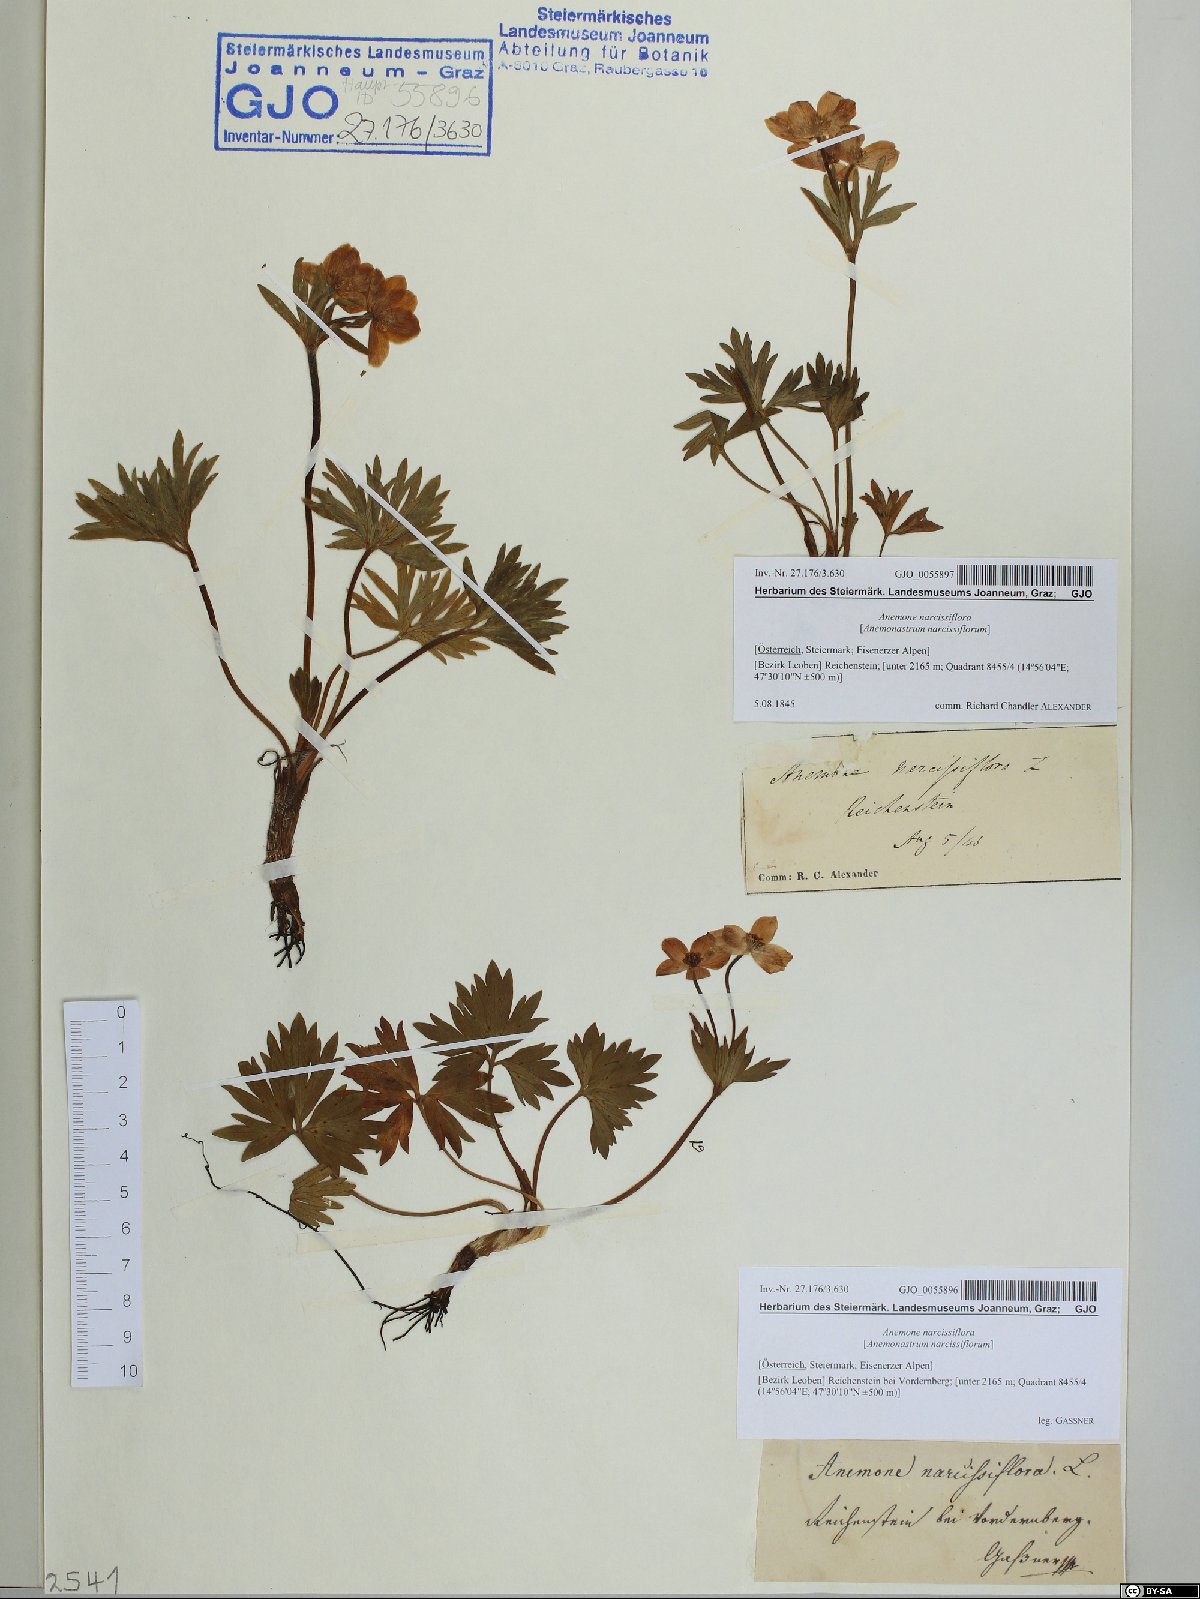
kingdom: Plantae
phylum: Tracheophyta
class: Magnoliopsida
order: Ranunculales
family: Ranunculaceae
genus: Anemonastrum
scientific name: Anemonastrum narcissiflorum
